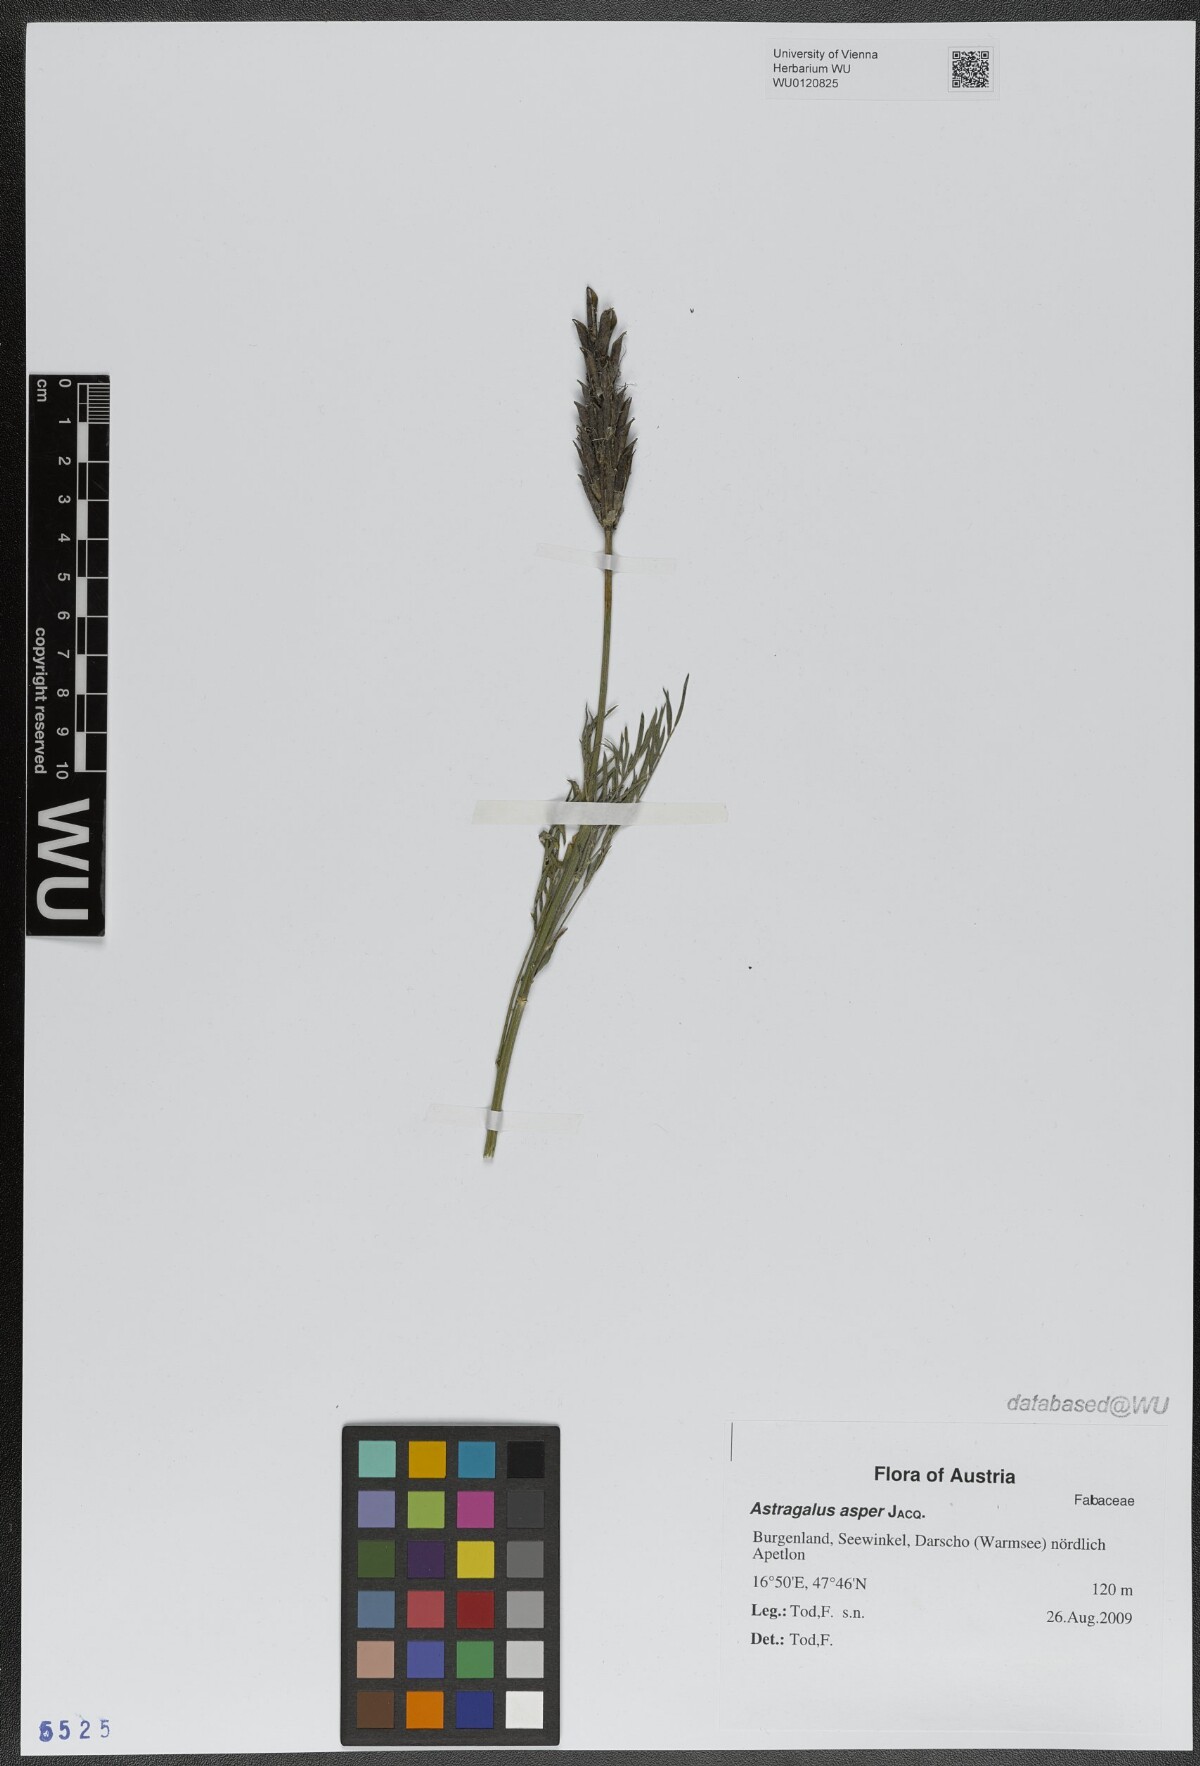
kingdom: Plantae
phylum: Tracheophyta
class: Magnoliopsida
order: Fabales
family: Fabaceae
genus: Astragalus
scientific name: Astragalus asper
